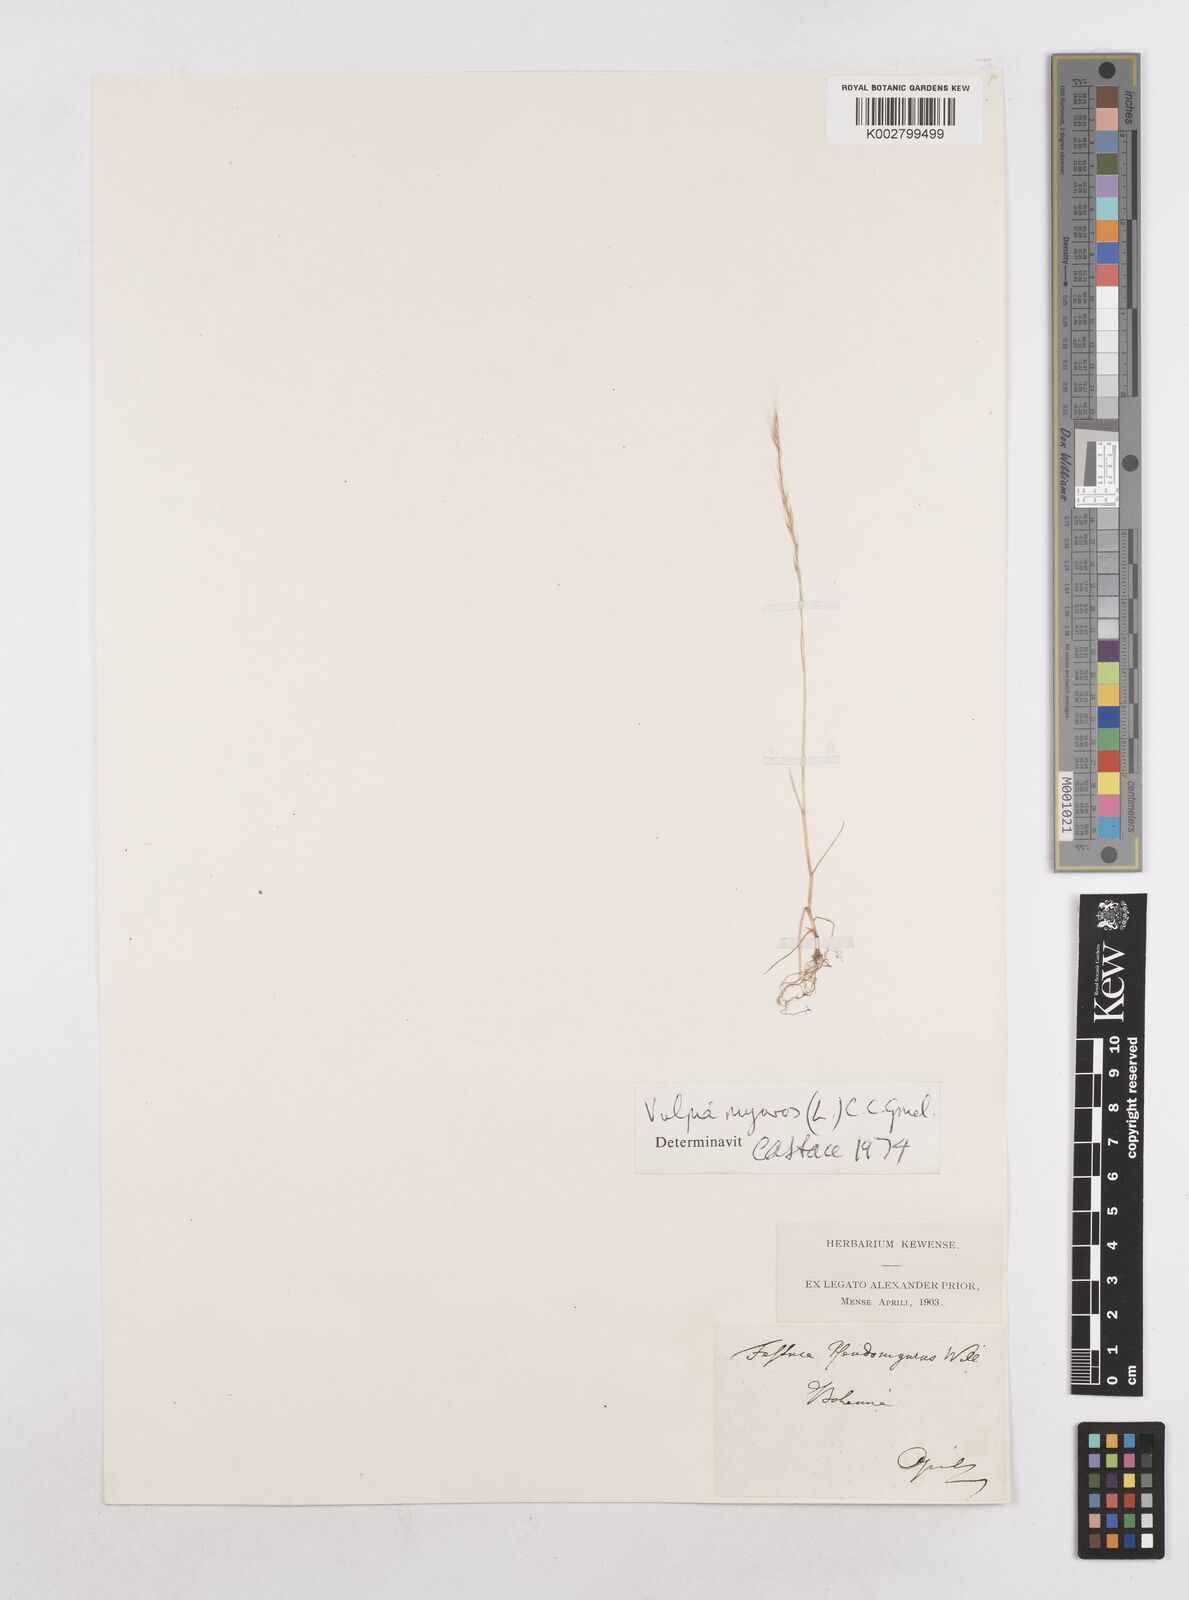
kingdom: Plantae
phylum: Tracheophyta
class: Liliopsida
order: Poales
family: Poaceae
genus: Festuca
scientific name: Festuca myuros
